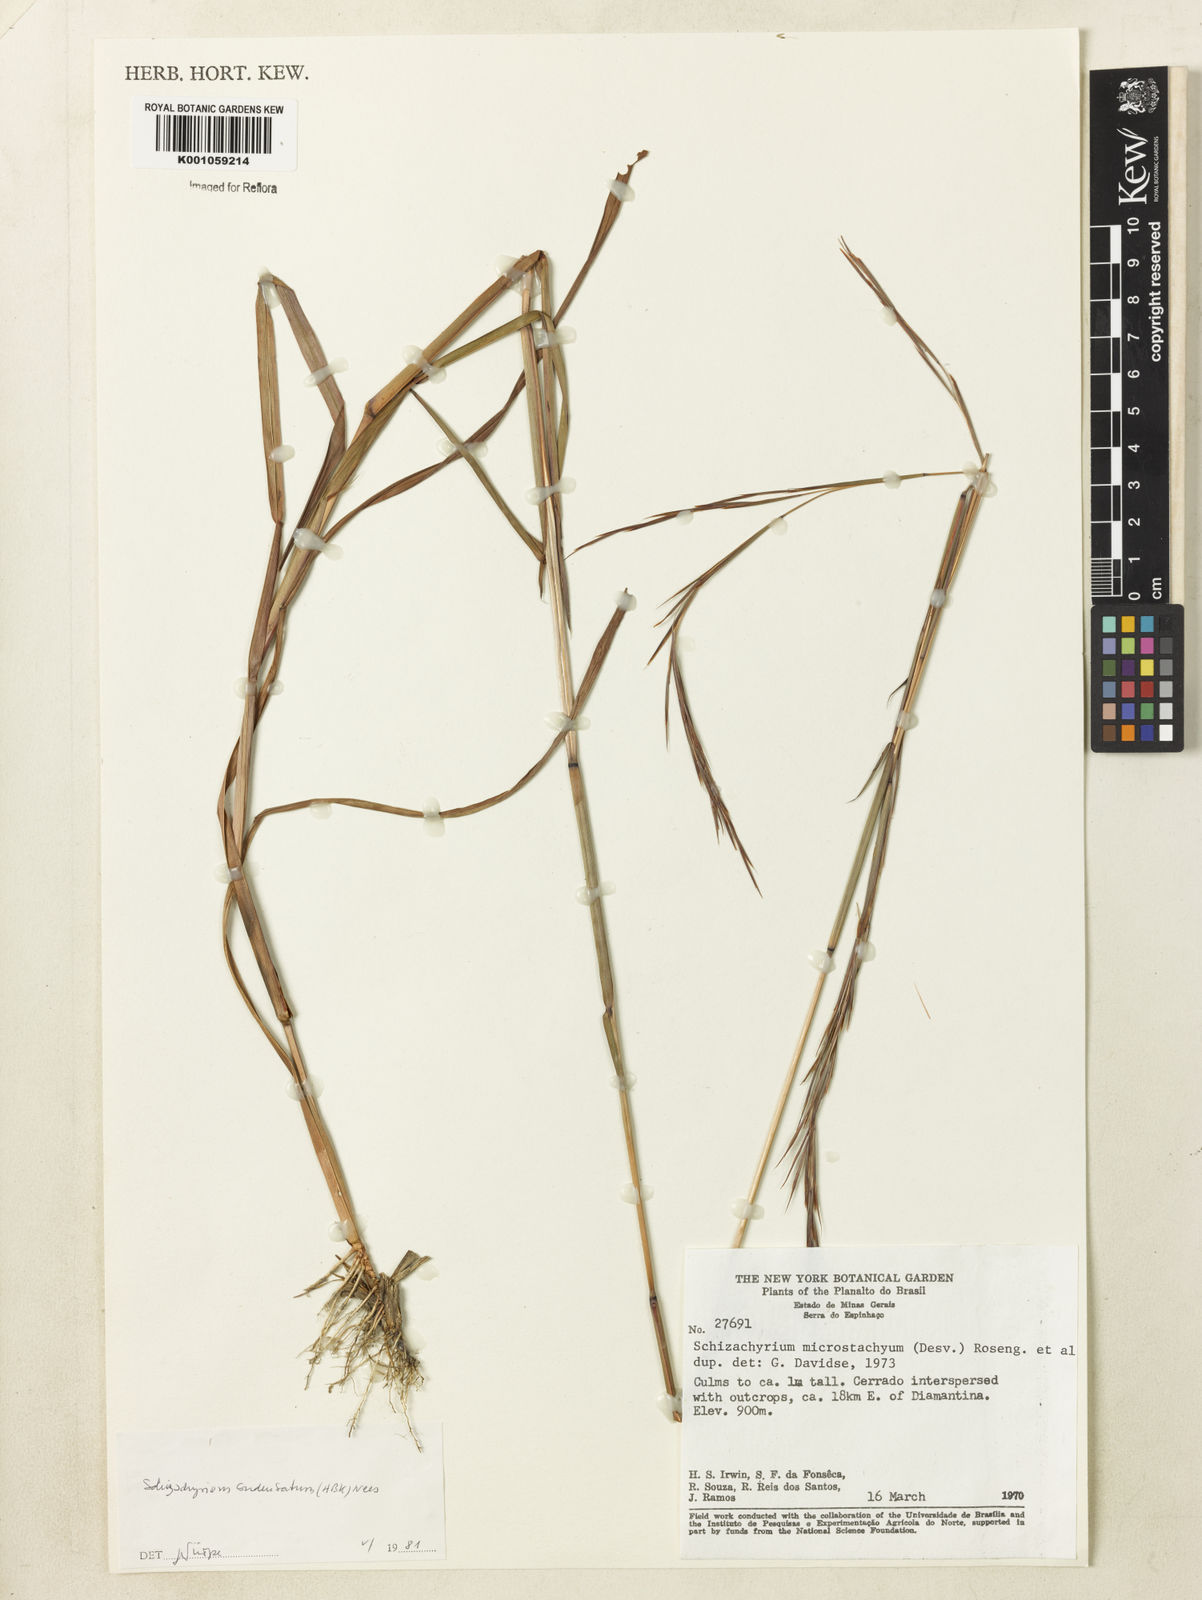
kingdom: Plantae
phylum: Tracheophyta
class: Liliopsida
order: Poales
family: Poaceae
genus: Schizachyrium
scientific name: Schizachyrium glaziovii
